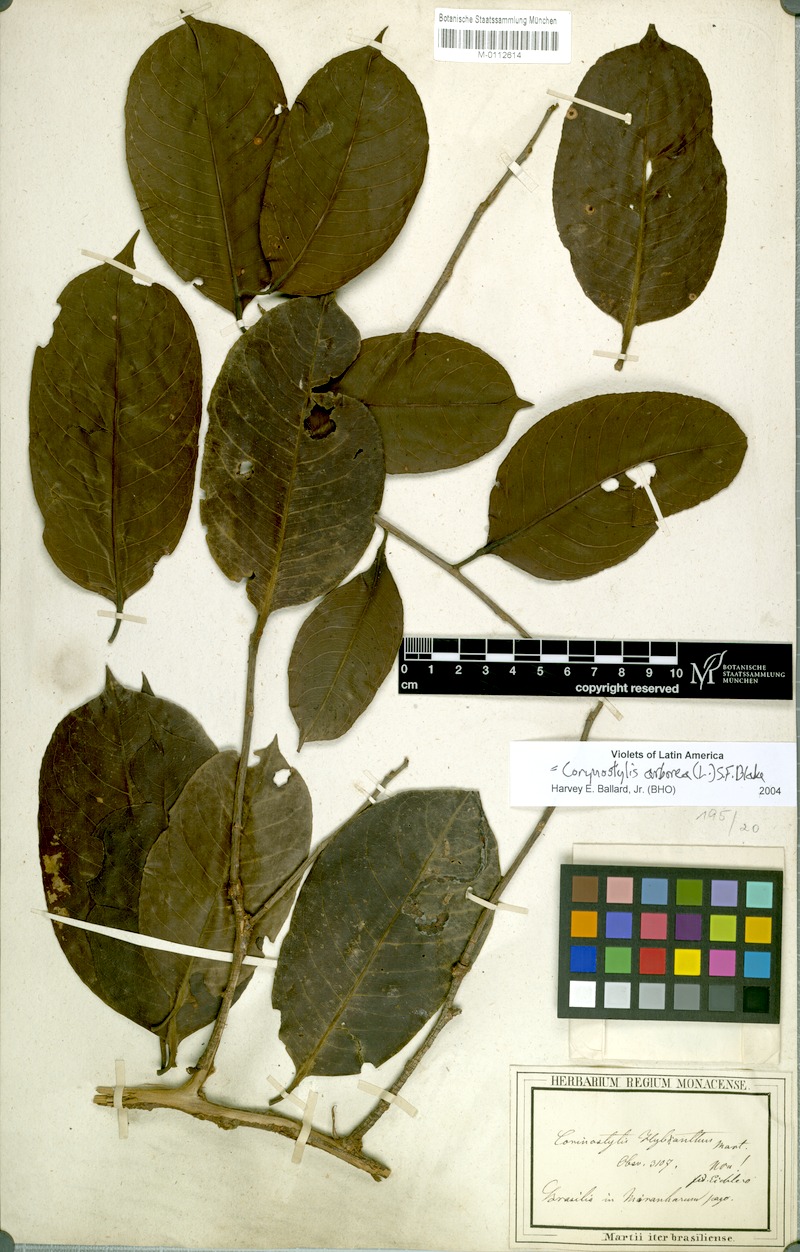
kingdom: Plantae
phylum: Tracheophyta
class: Magnoliopsida
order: Malpighiales
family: Violaceae
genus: Calyptrion
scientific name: Calyptrion arboreum
